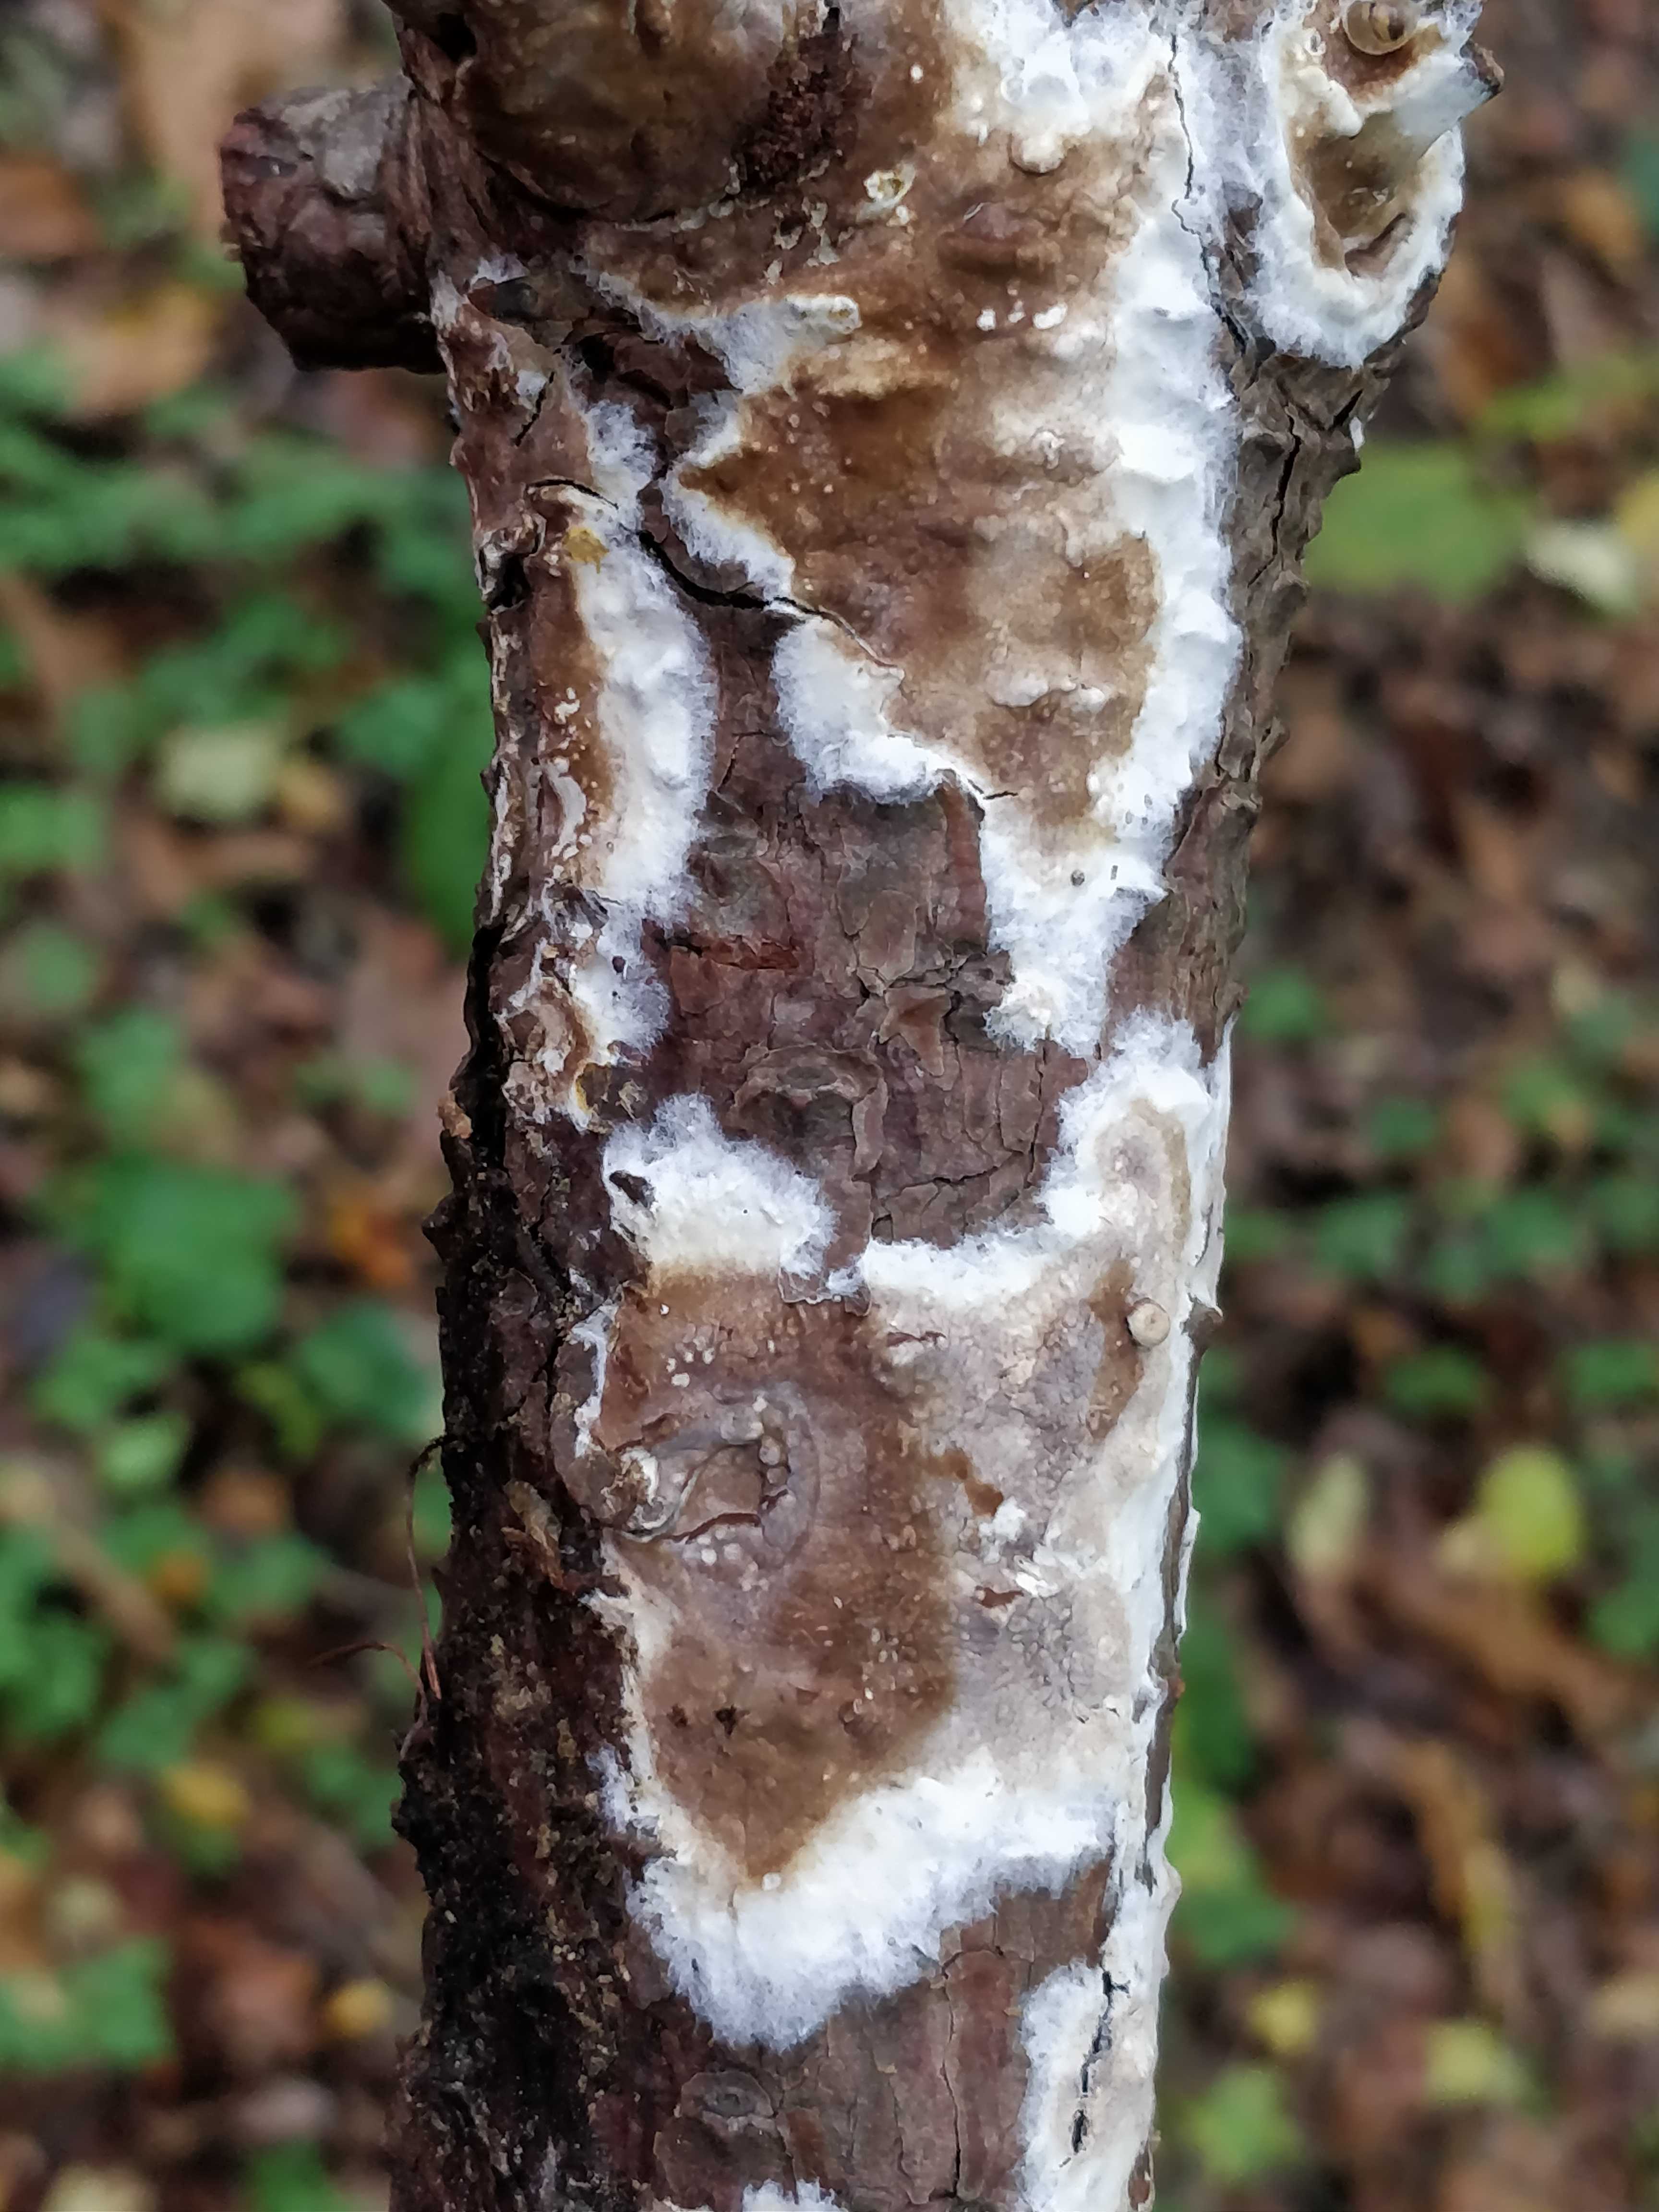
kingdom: Fungi
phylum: Basidiomycota
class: Agaricomycetes
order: Boletales
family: Coniophoraceae
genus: Coniophora
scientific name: Coniophora
